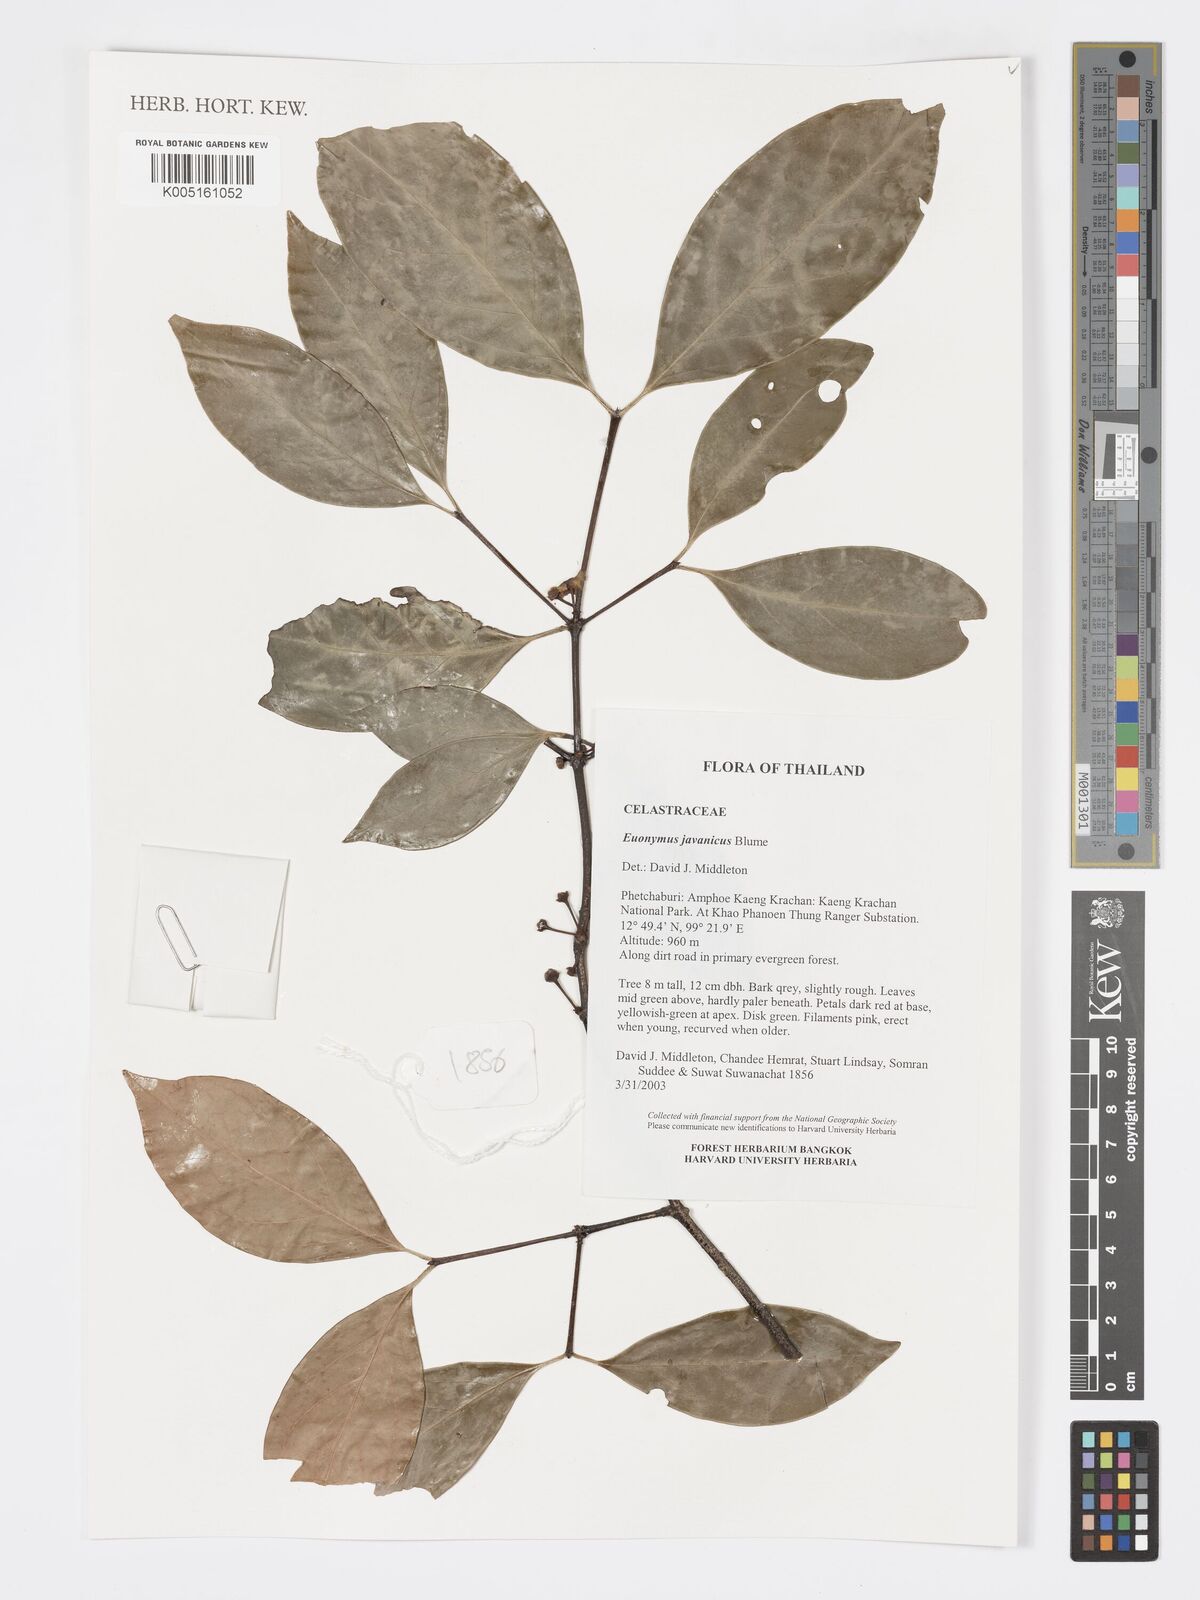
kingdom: Plantae
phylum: Tracheophyta
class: Magnoliopsida
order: Celastrales
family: Celastraceae
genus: Euonymus
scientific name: Euonymus indicus
